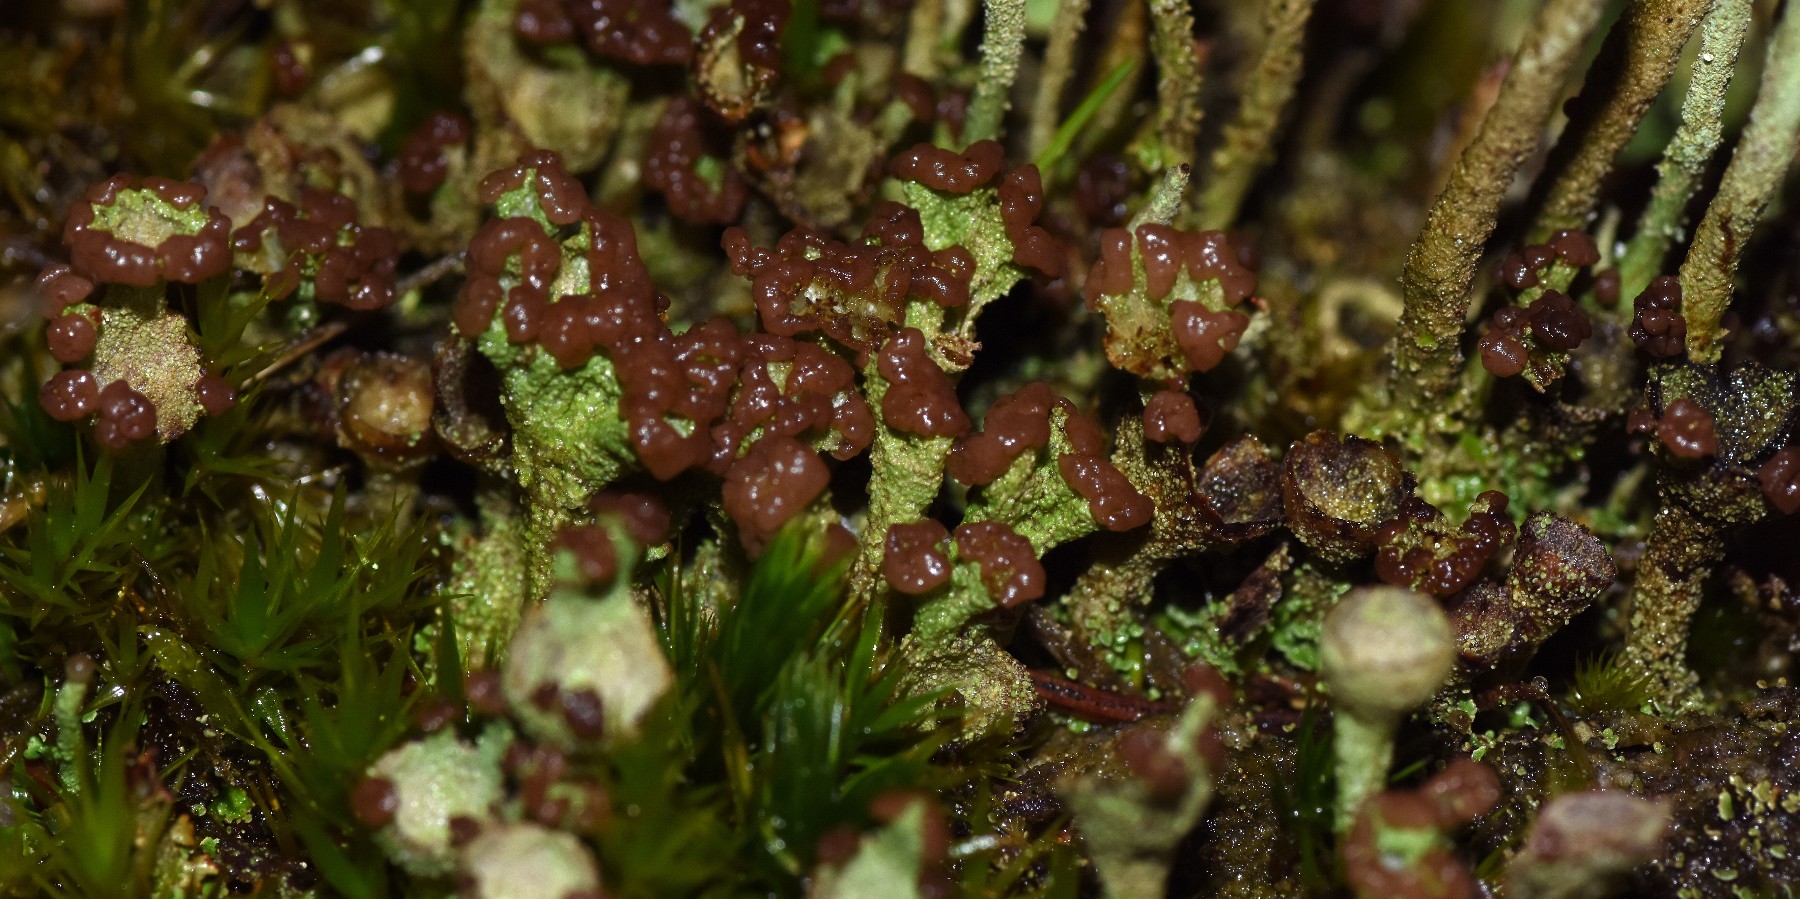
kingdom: Fungi
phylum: Ascomycota
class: Lecanoromycetes
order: Lecanorales
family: Cladoniaceae
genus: Cladonia
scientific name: Cladonia
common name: brungrøn bægerlav
